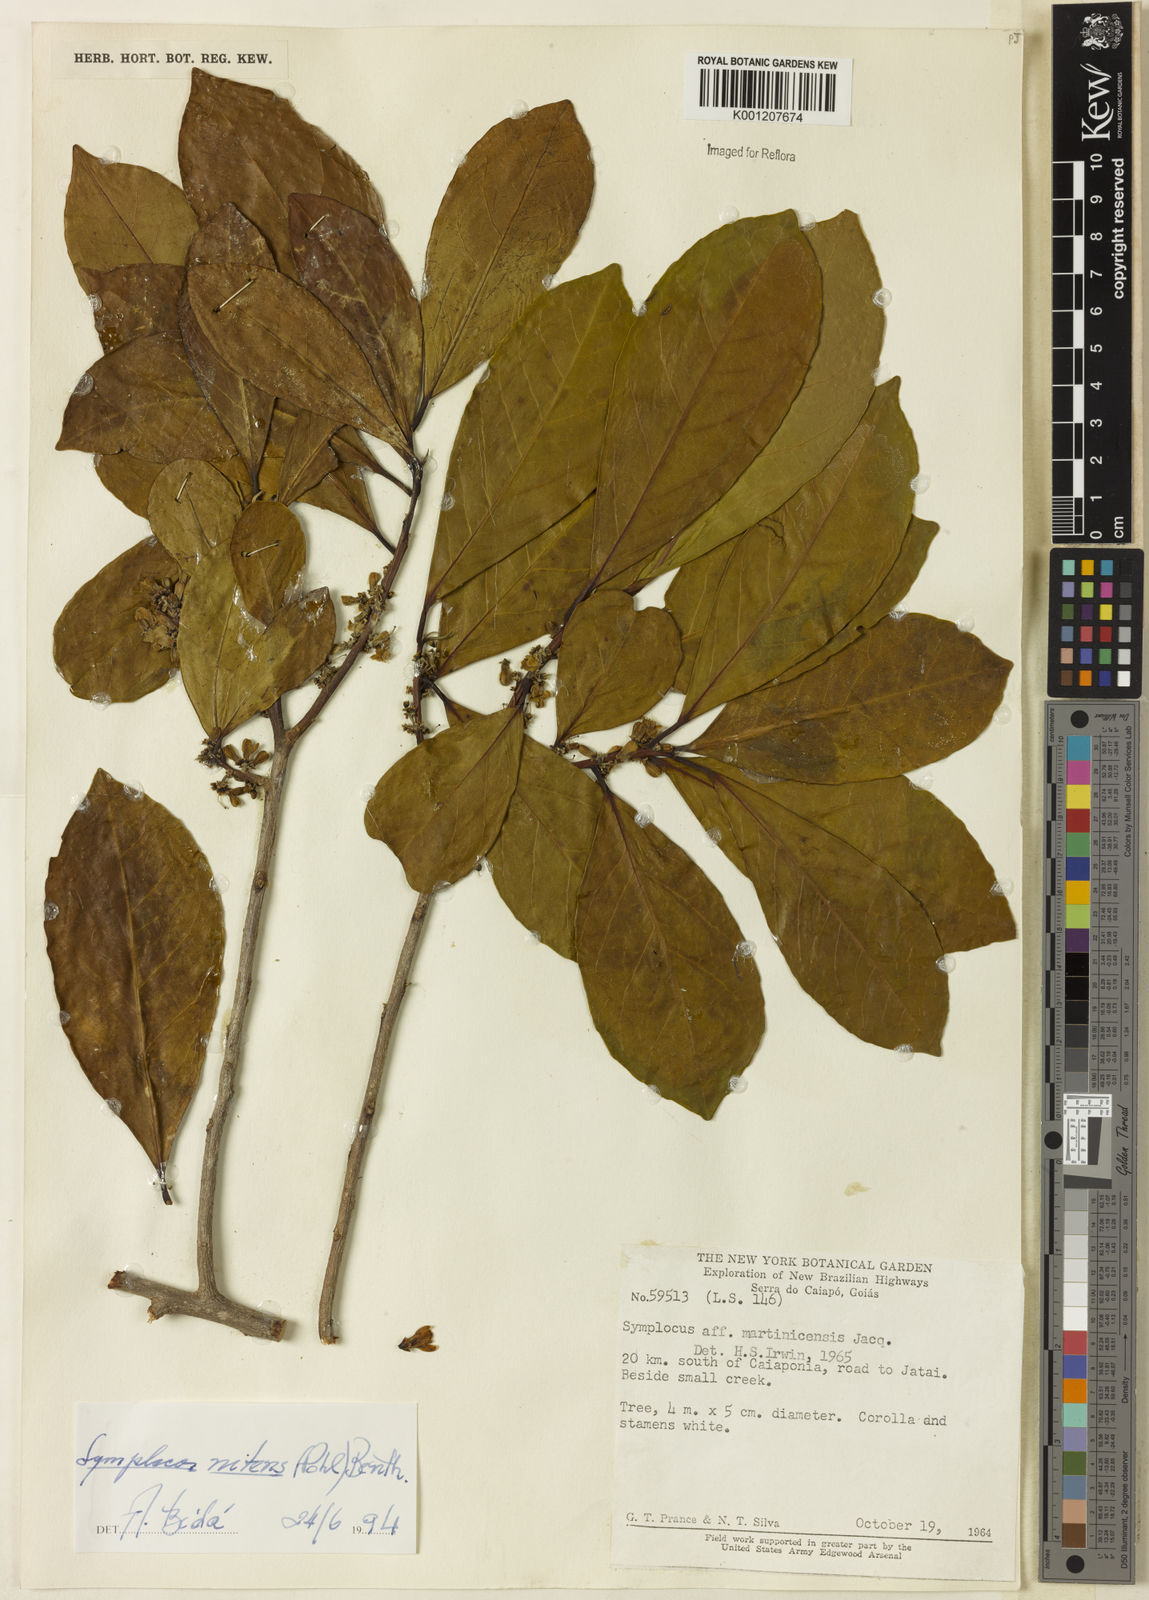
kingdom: Plantae
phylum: Tracheophyta
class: Magnoliopsida
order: Ericales
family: Symplocaceae
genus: Symplocos
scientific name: Symplocos nitens
